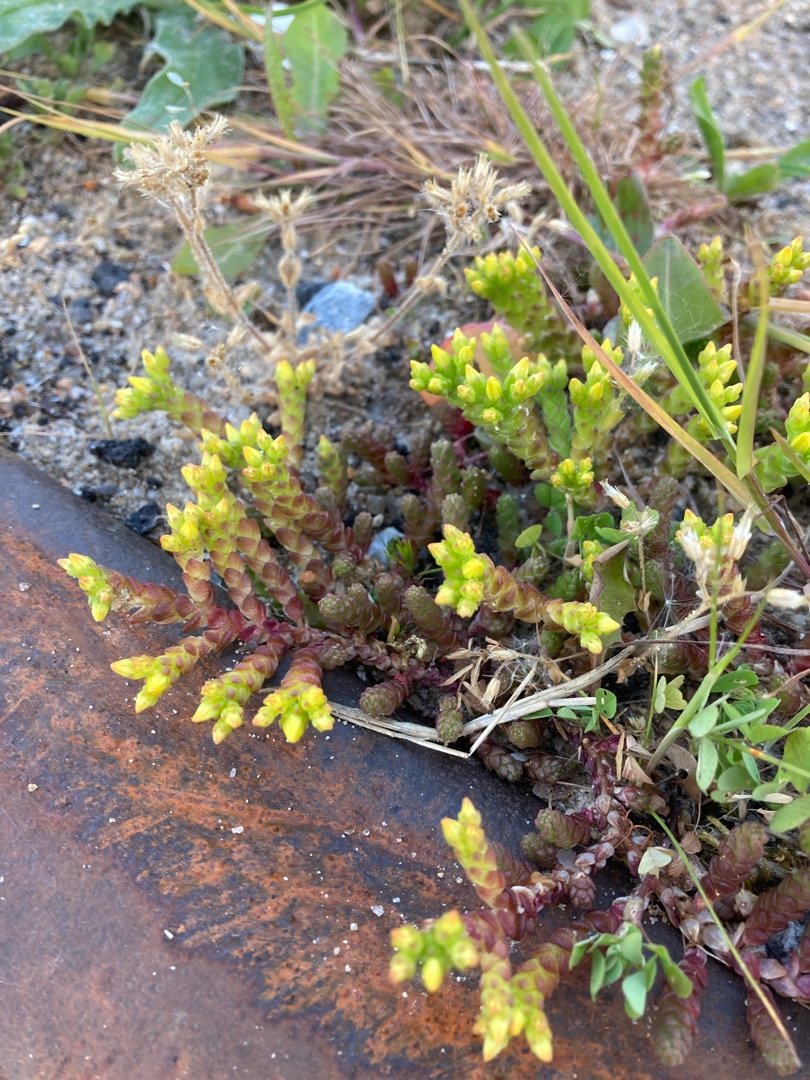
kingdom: Plantae
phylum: Tracheophyta
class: Magnoliopsida
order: Saxifragales
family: Crassulaceae
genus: Sedum
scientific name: Sedum acre
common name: Bidende stenurt
